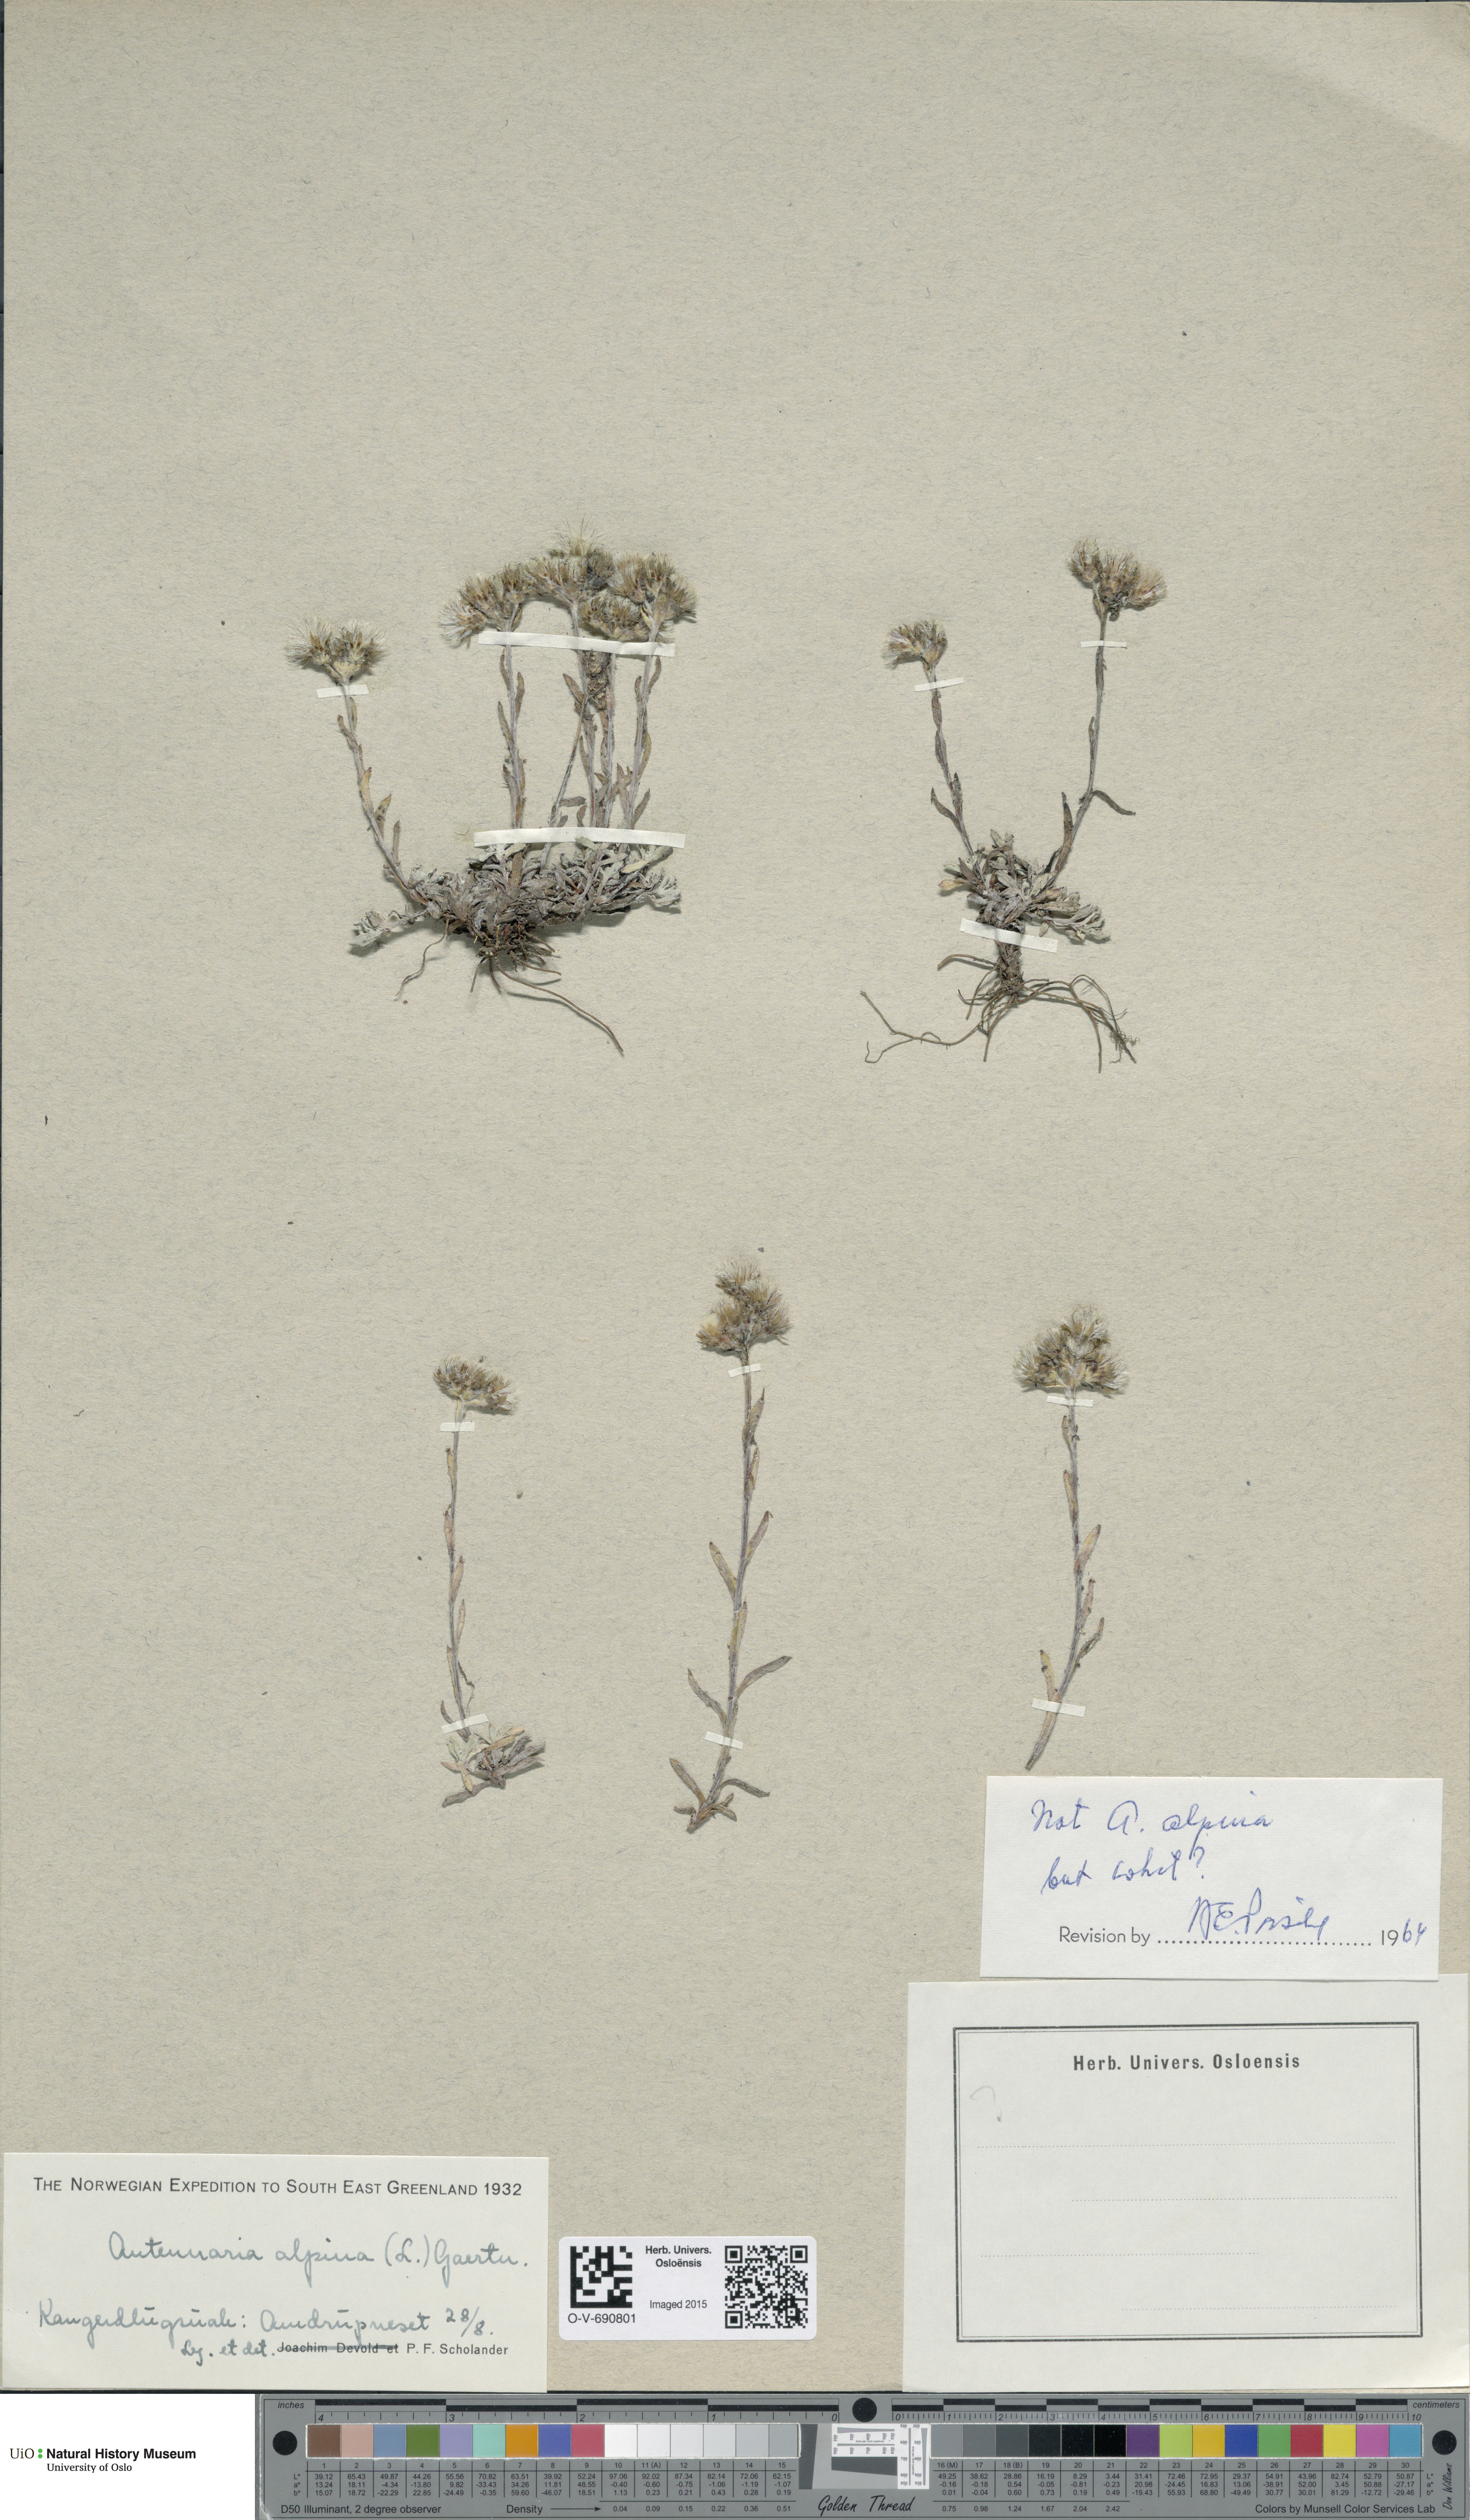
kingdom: Plantae
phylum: Tracheophyta
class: Magnoliopsida
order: Asterales
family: Asteraceae
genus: Antennaria
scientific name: Antennaria alpina
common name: Alpine pussytoes
